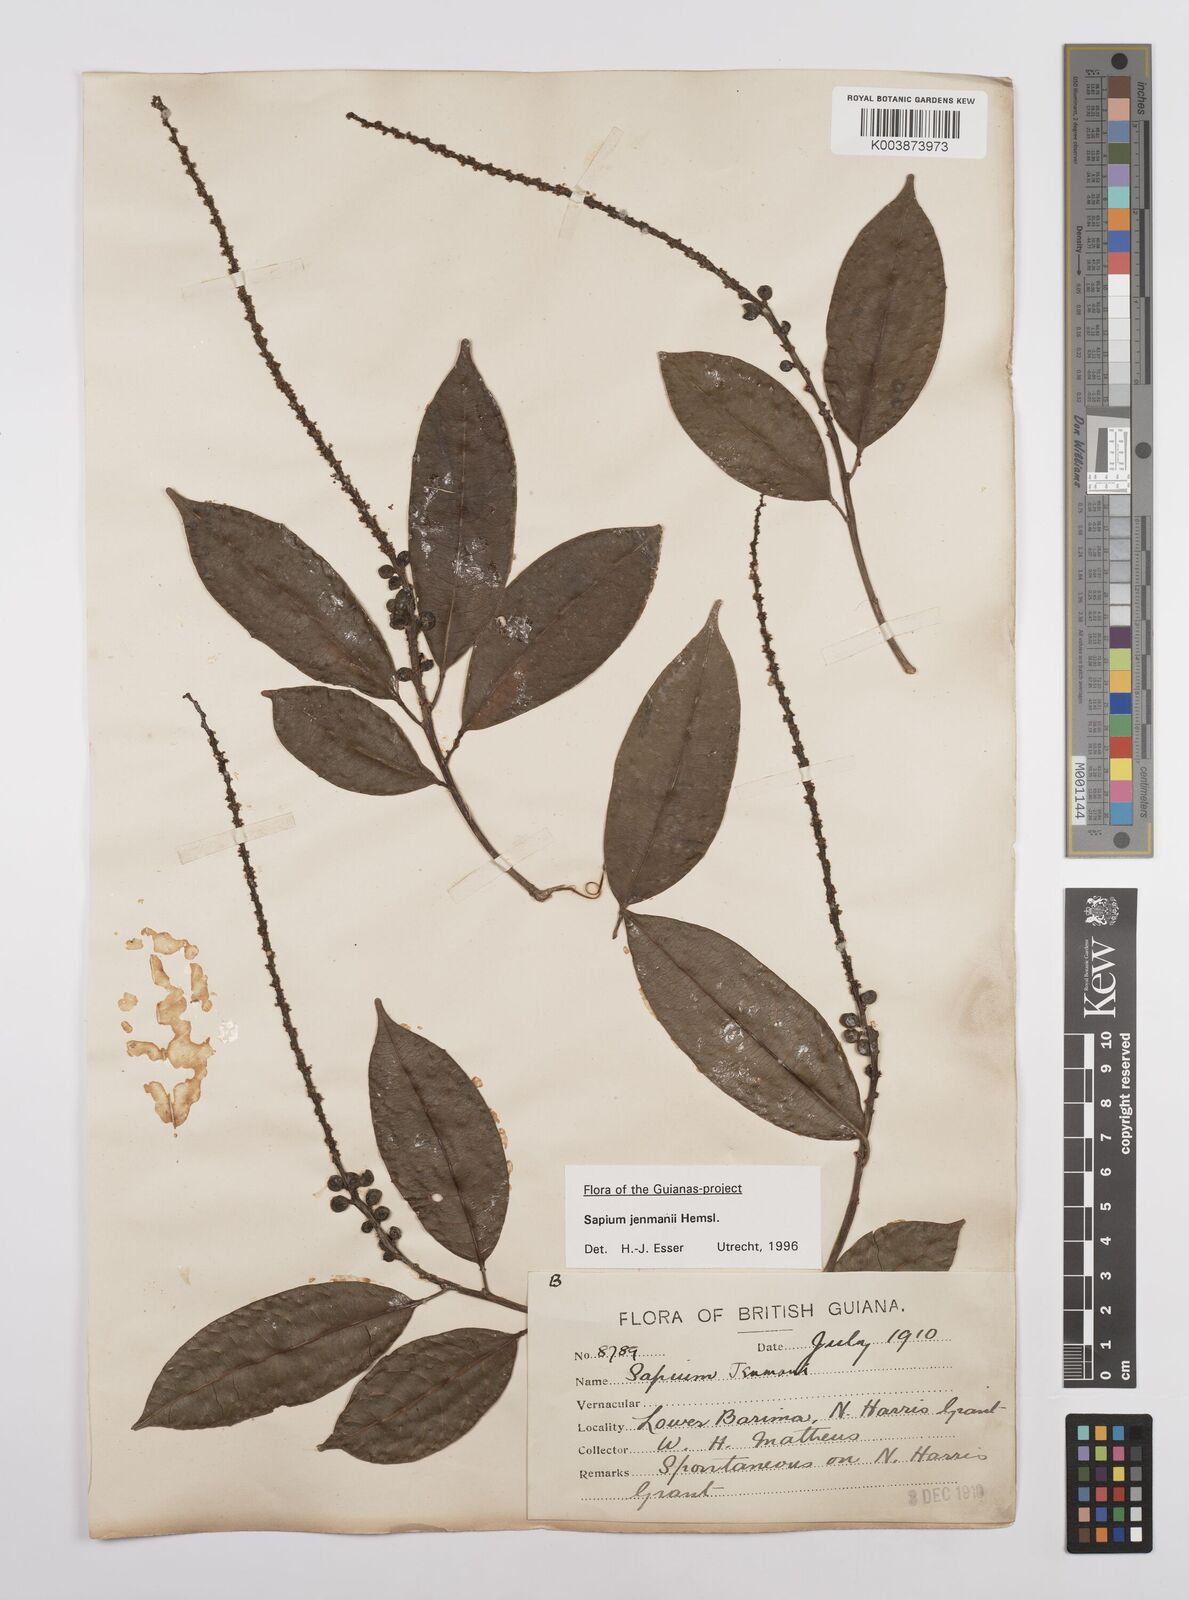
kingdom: Plantae
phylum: Tracheophyta
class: Magnoliopsida
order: Malpighiales
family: Euphorbiaceae
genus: Sapium
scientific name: Sapium jenmannii
